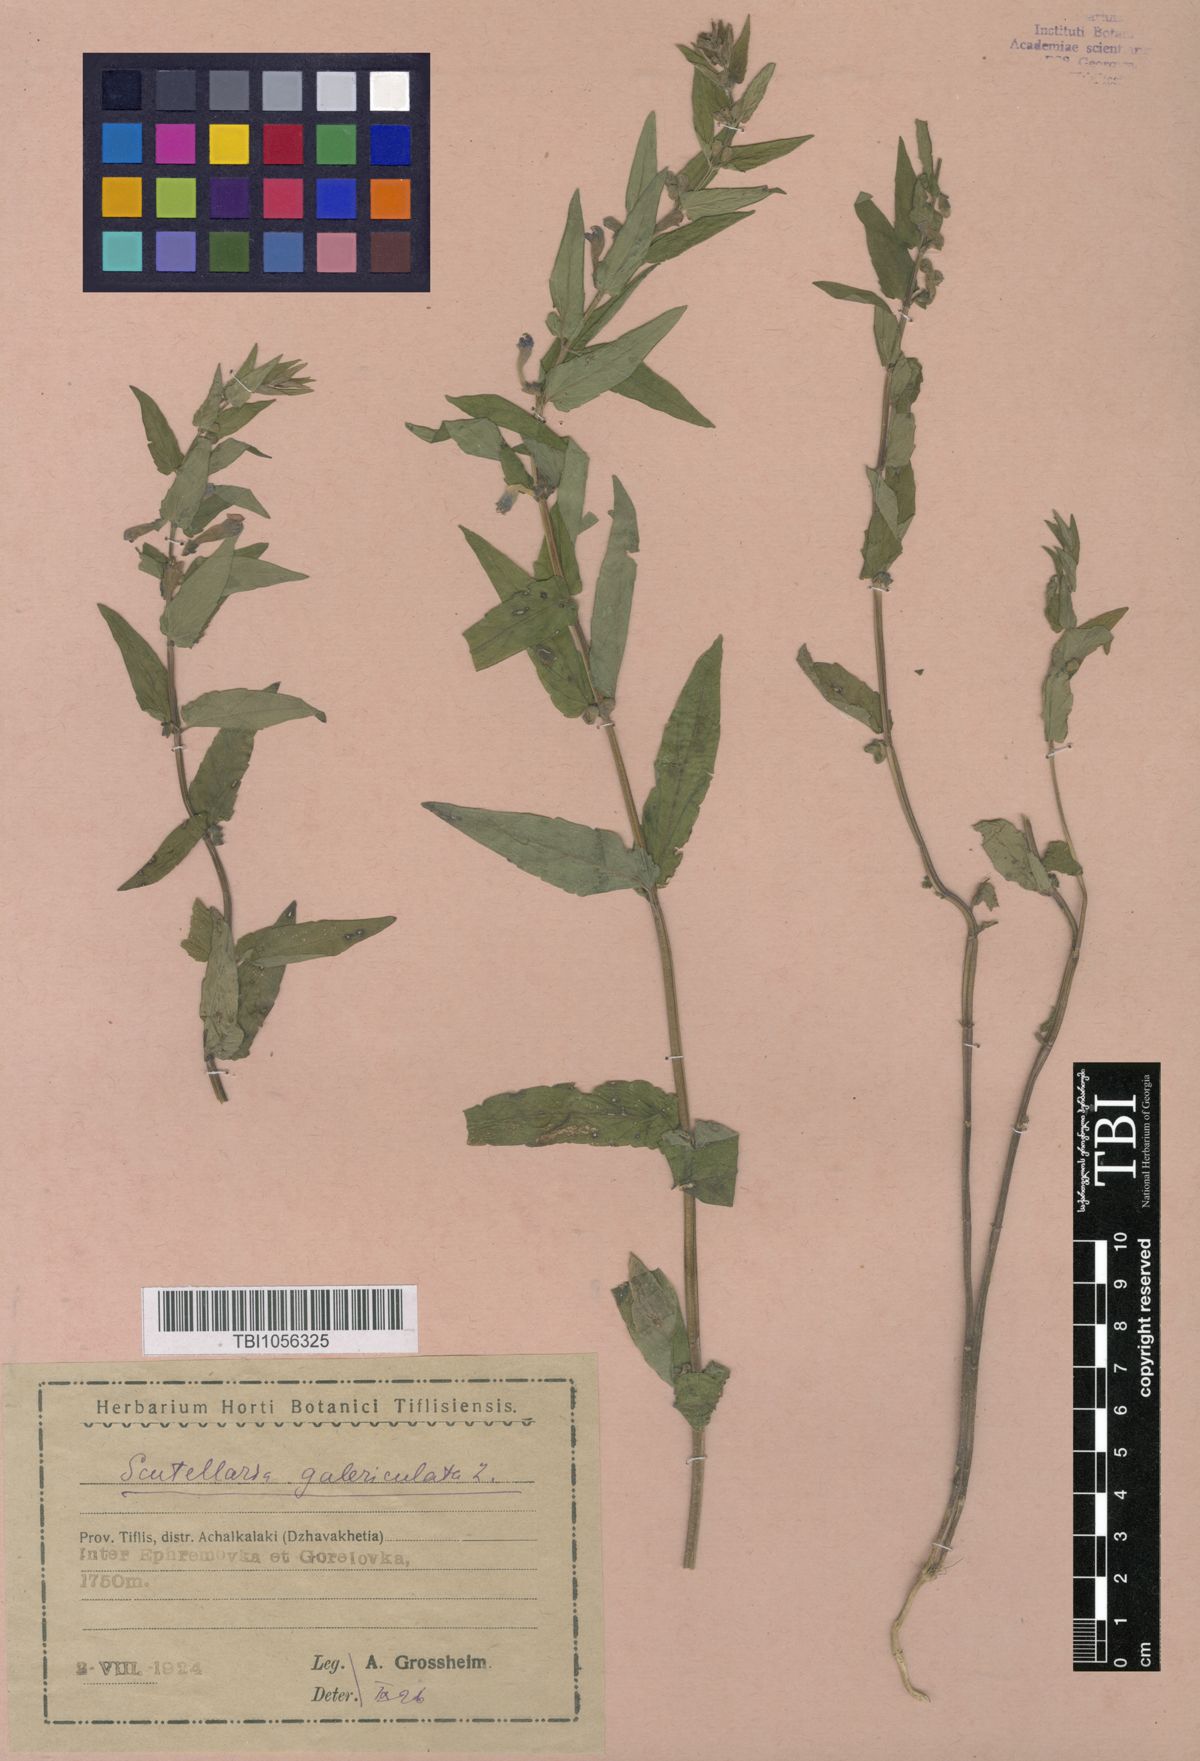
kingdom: Plantae
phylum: Tracheophyta
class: Magnoliopsida
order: Lamiales
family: Lamiaceae
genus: Scutellaria
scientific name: Scutellaria galericulata
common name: Skullcap
